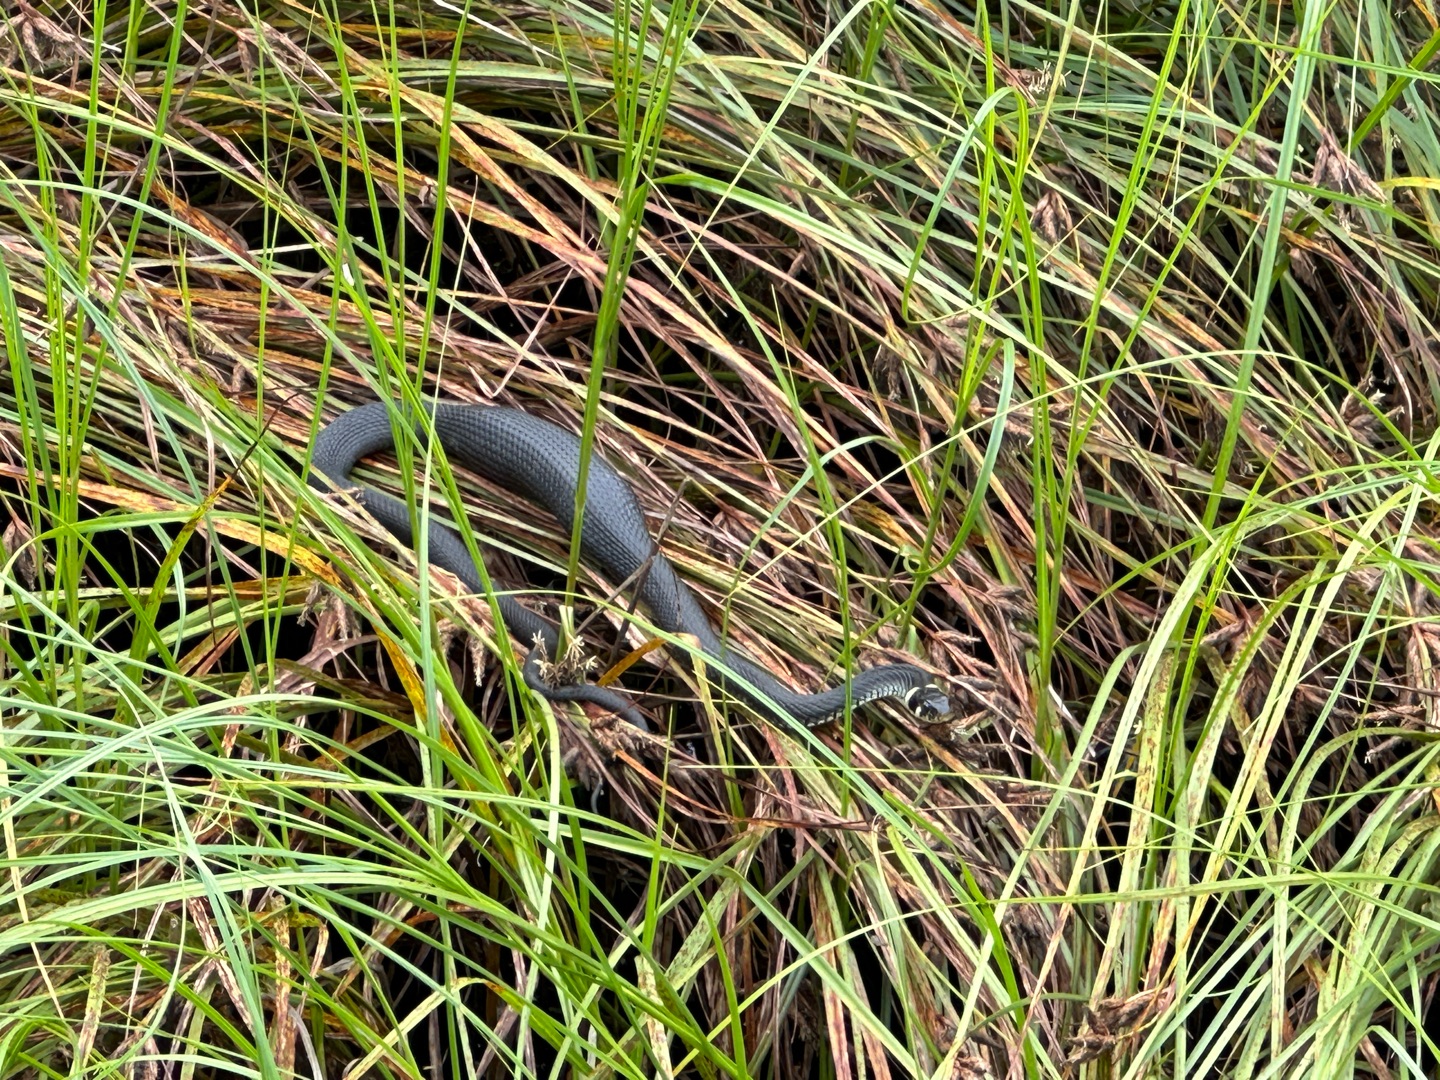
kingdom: Animalia
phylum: Chordata
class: Squamata
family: Colubridae
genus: Natrix
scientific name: Natrix natrix
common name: Snog
